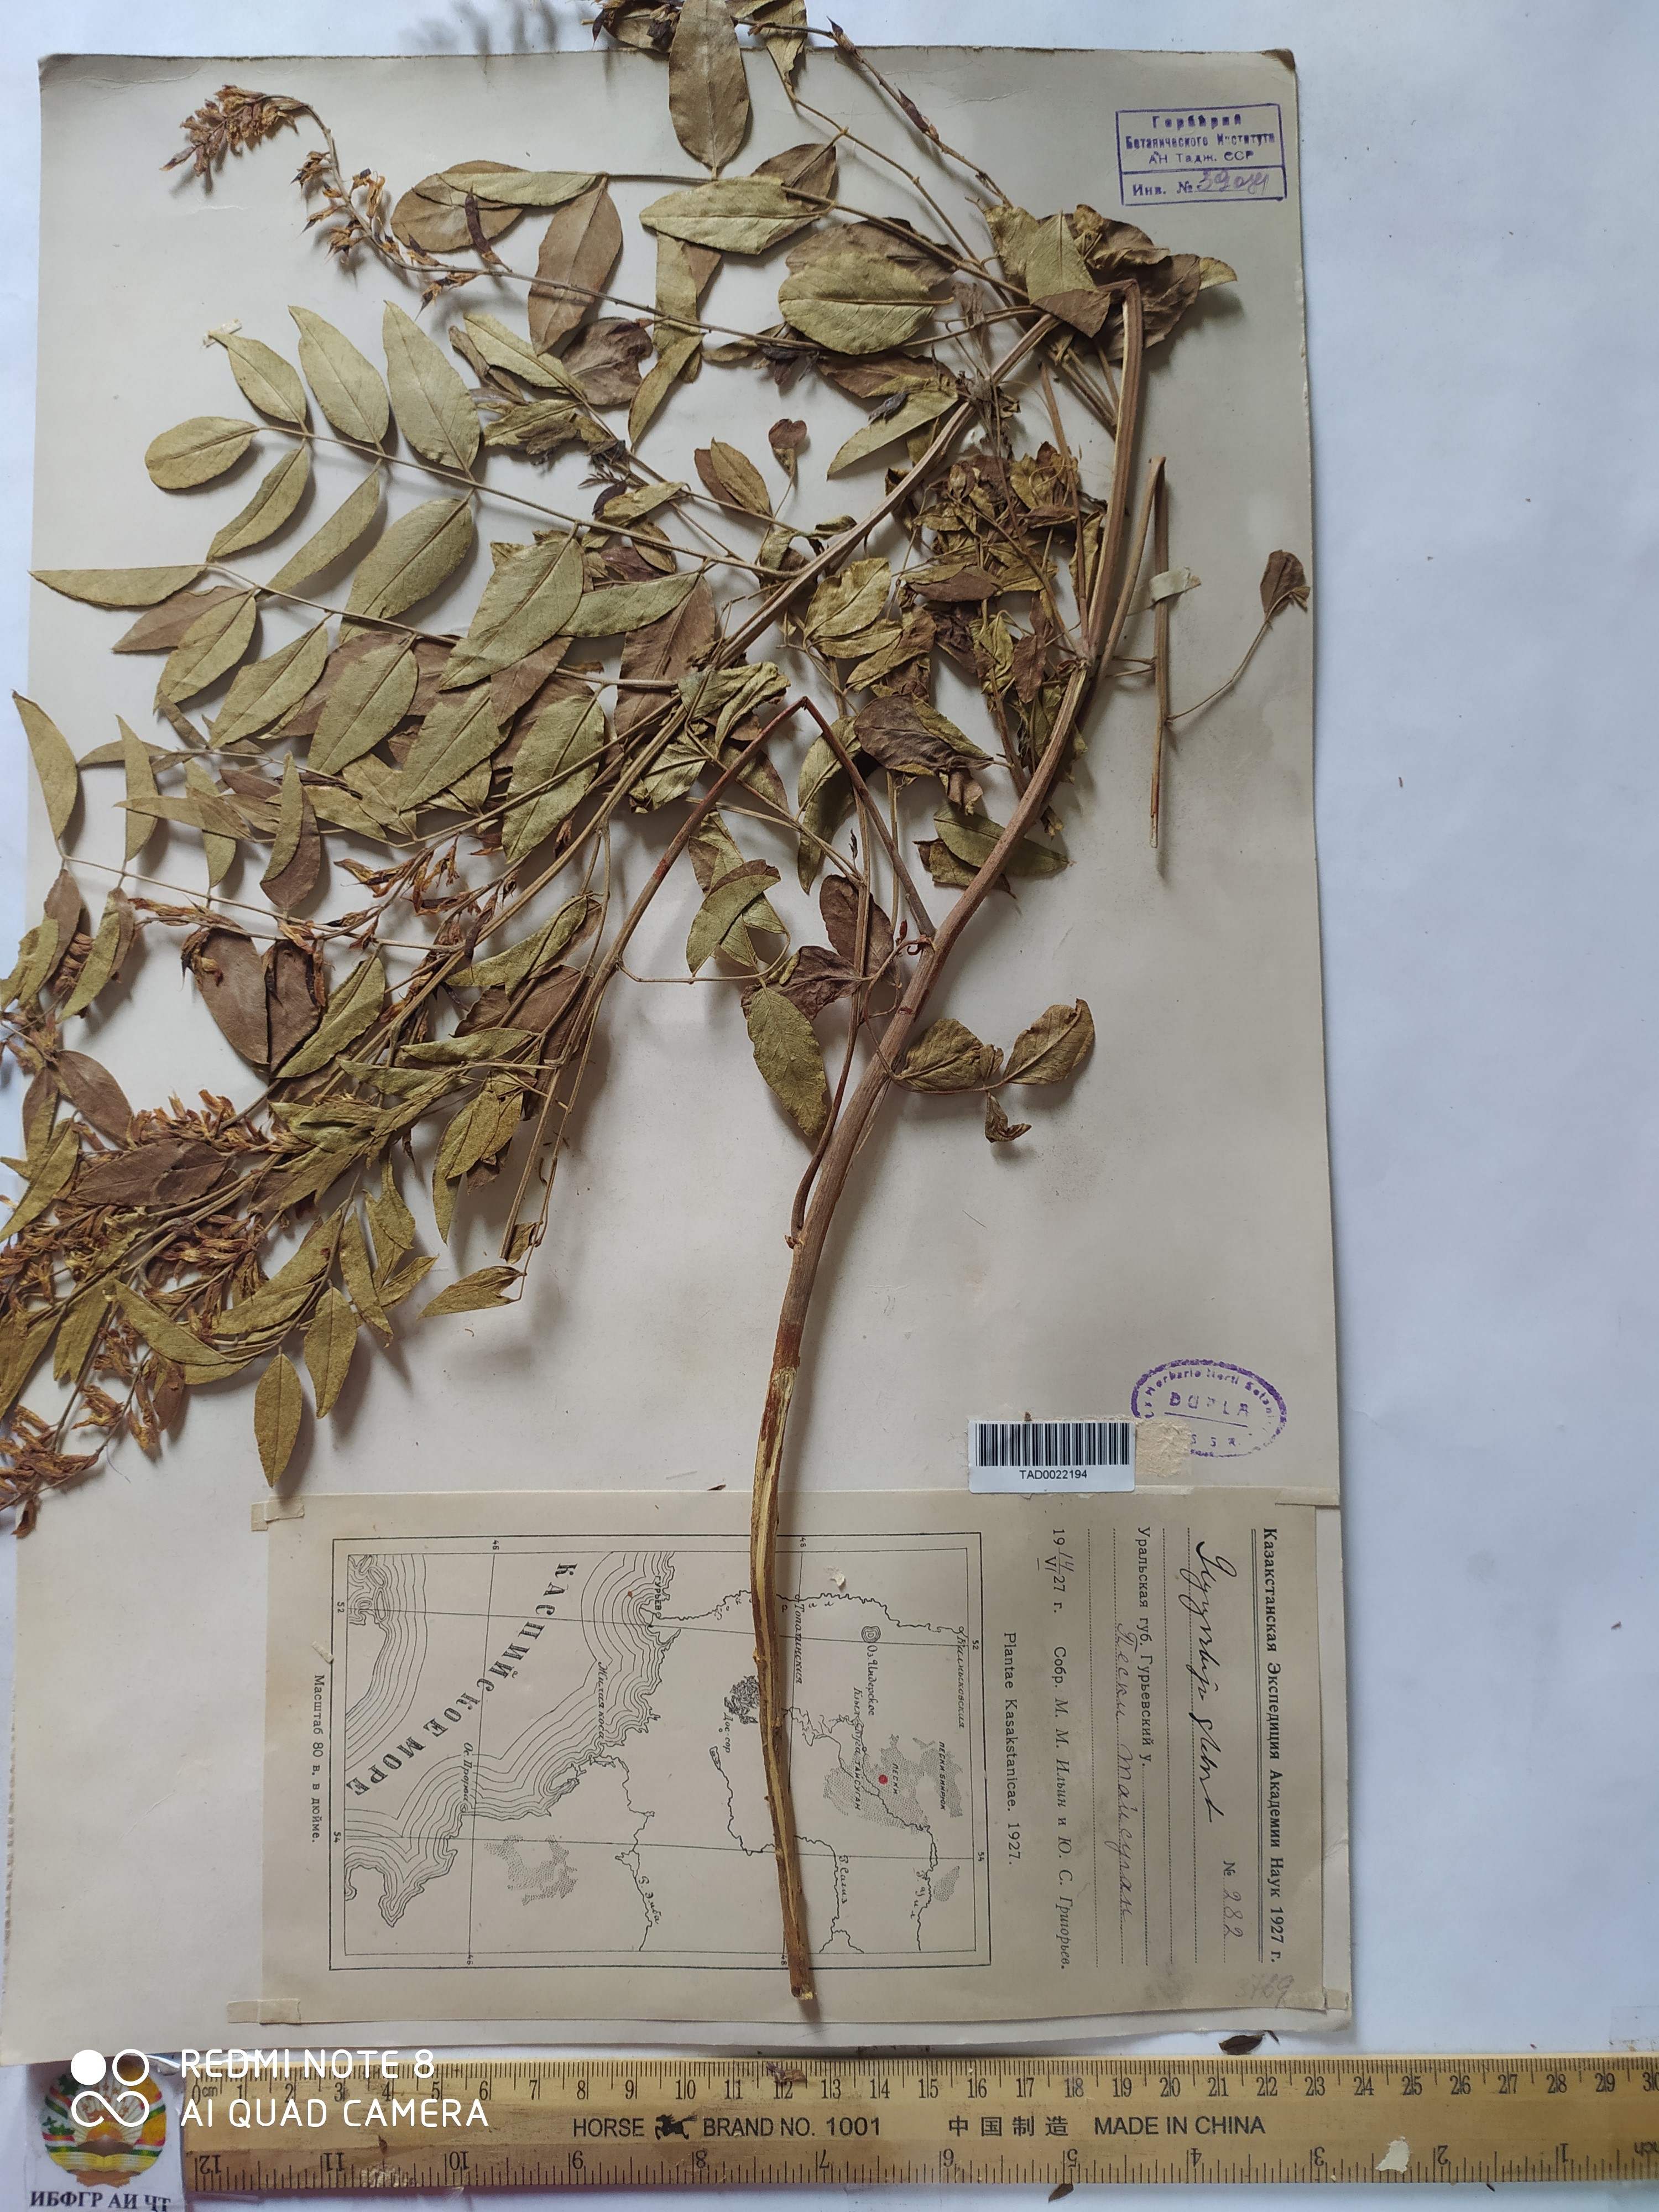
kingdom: Plantae
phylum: Tracheophyta
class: Magnoliopsida
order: Fabales
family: Fabaceae
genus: Glycyrrhiza
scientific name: Glycyrrhiza glabra
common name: Liquorice
